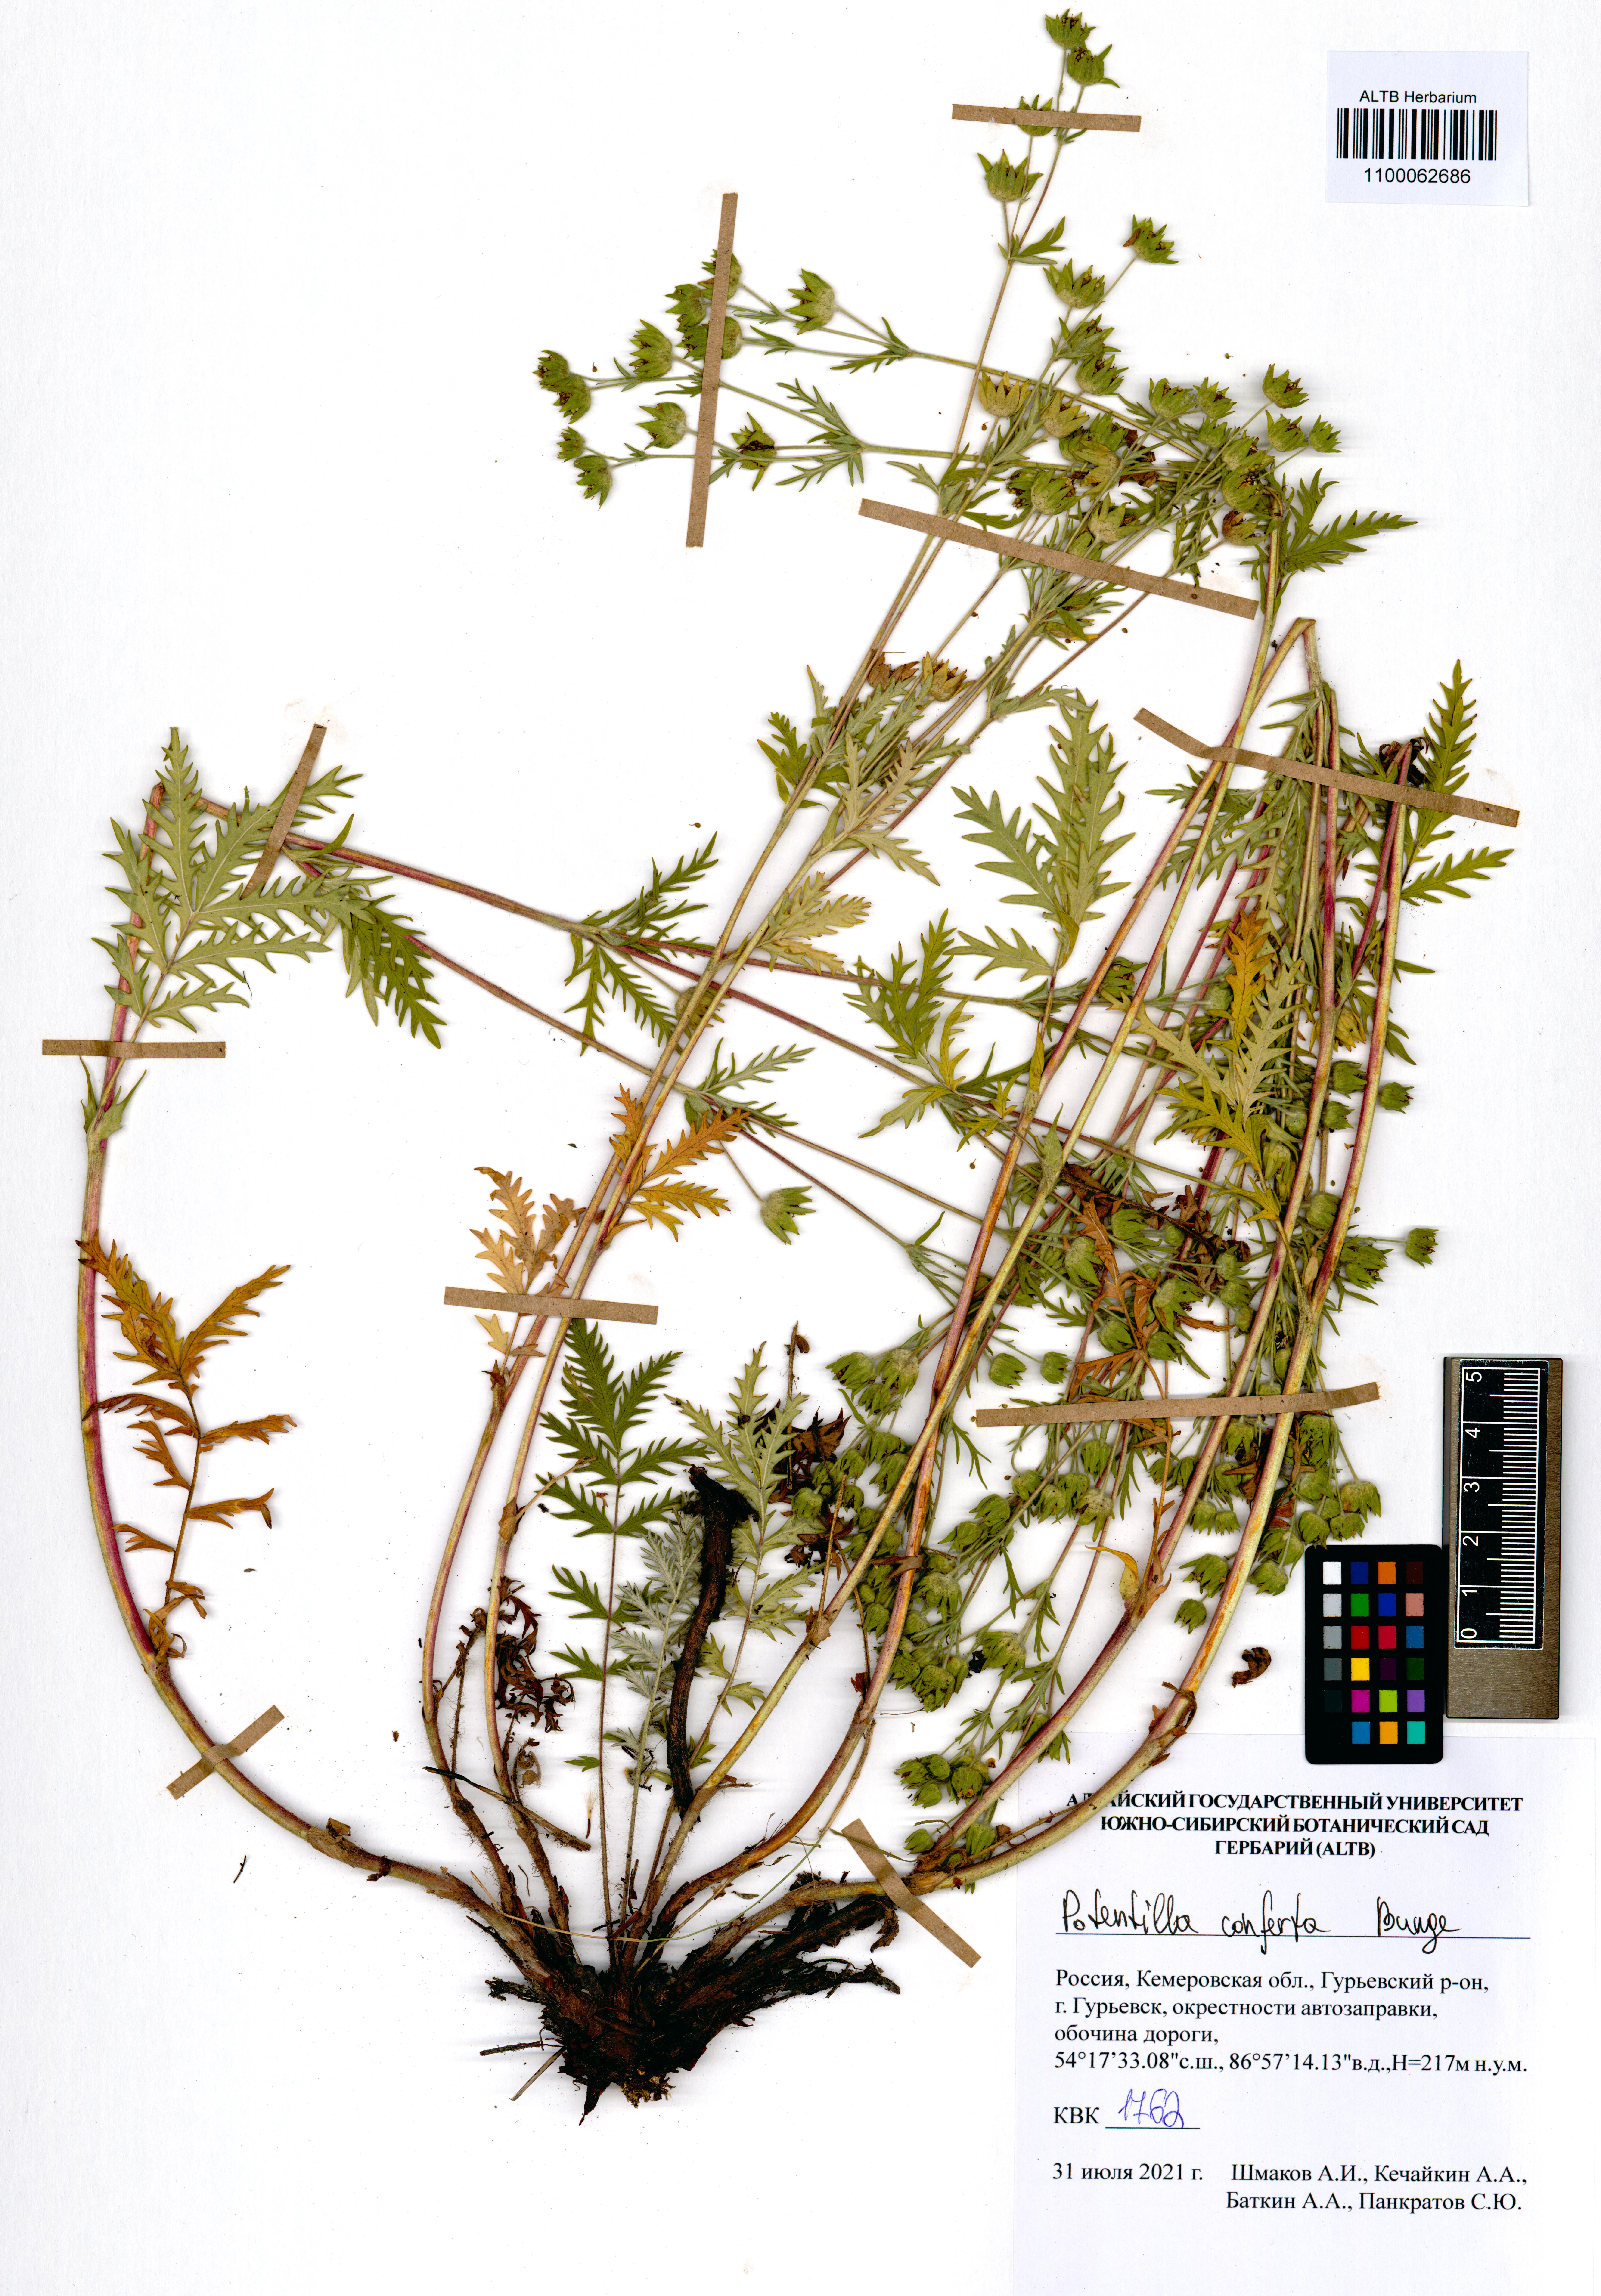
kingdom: Plantae
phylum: Tracheophyta
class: Magnoliopsida
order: Rosales
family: Rosaceae
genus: Potentilla
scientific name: Potentilla conferta
